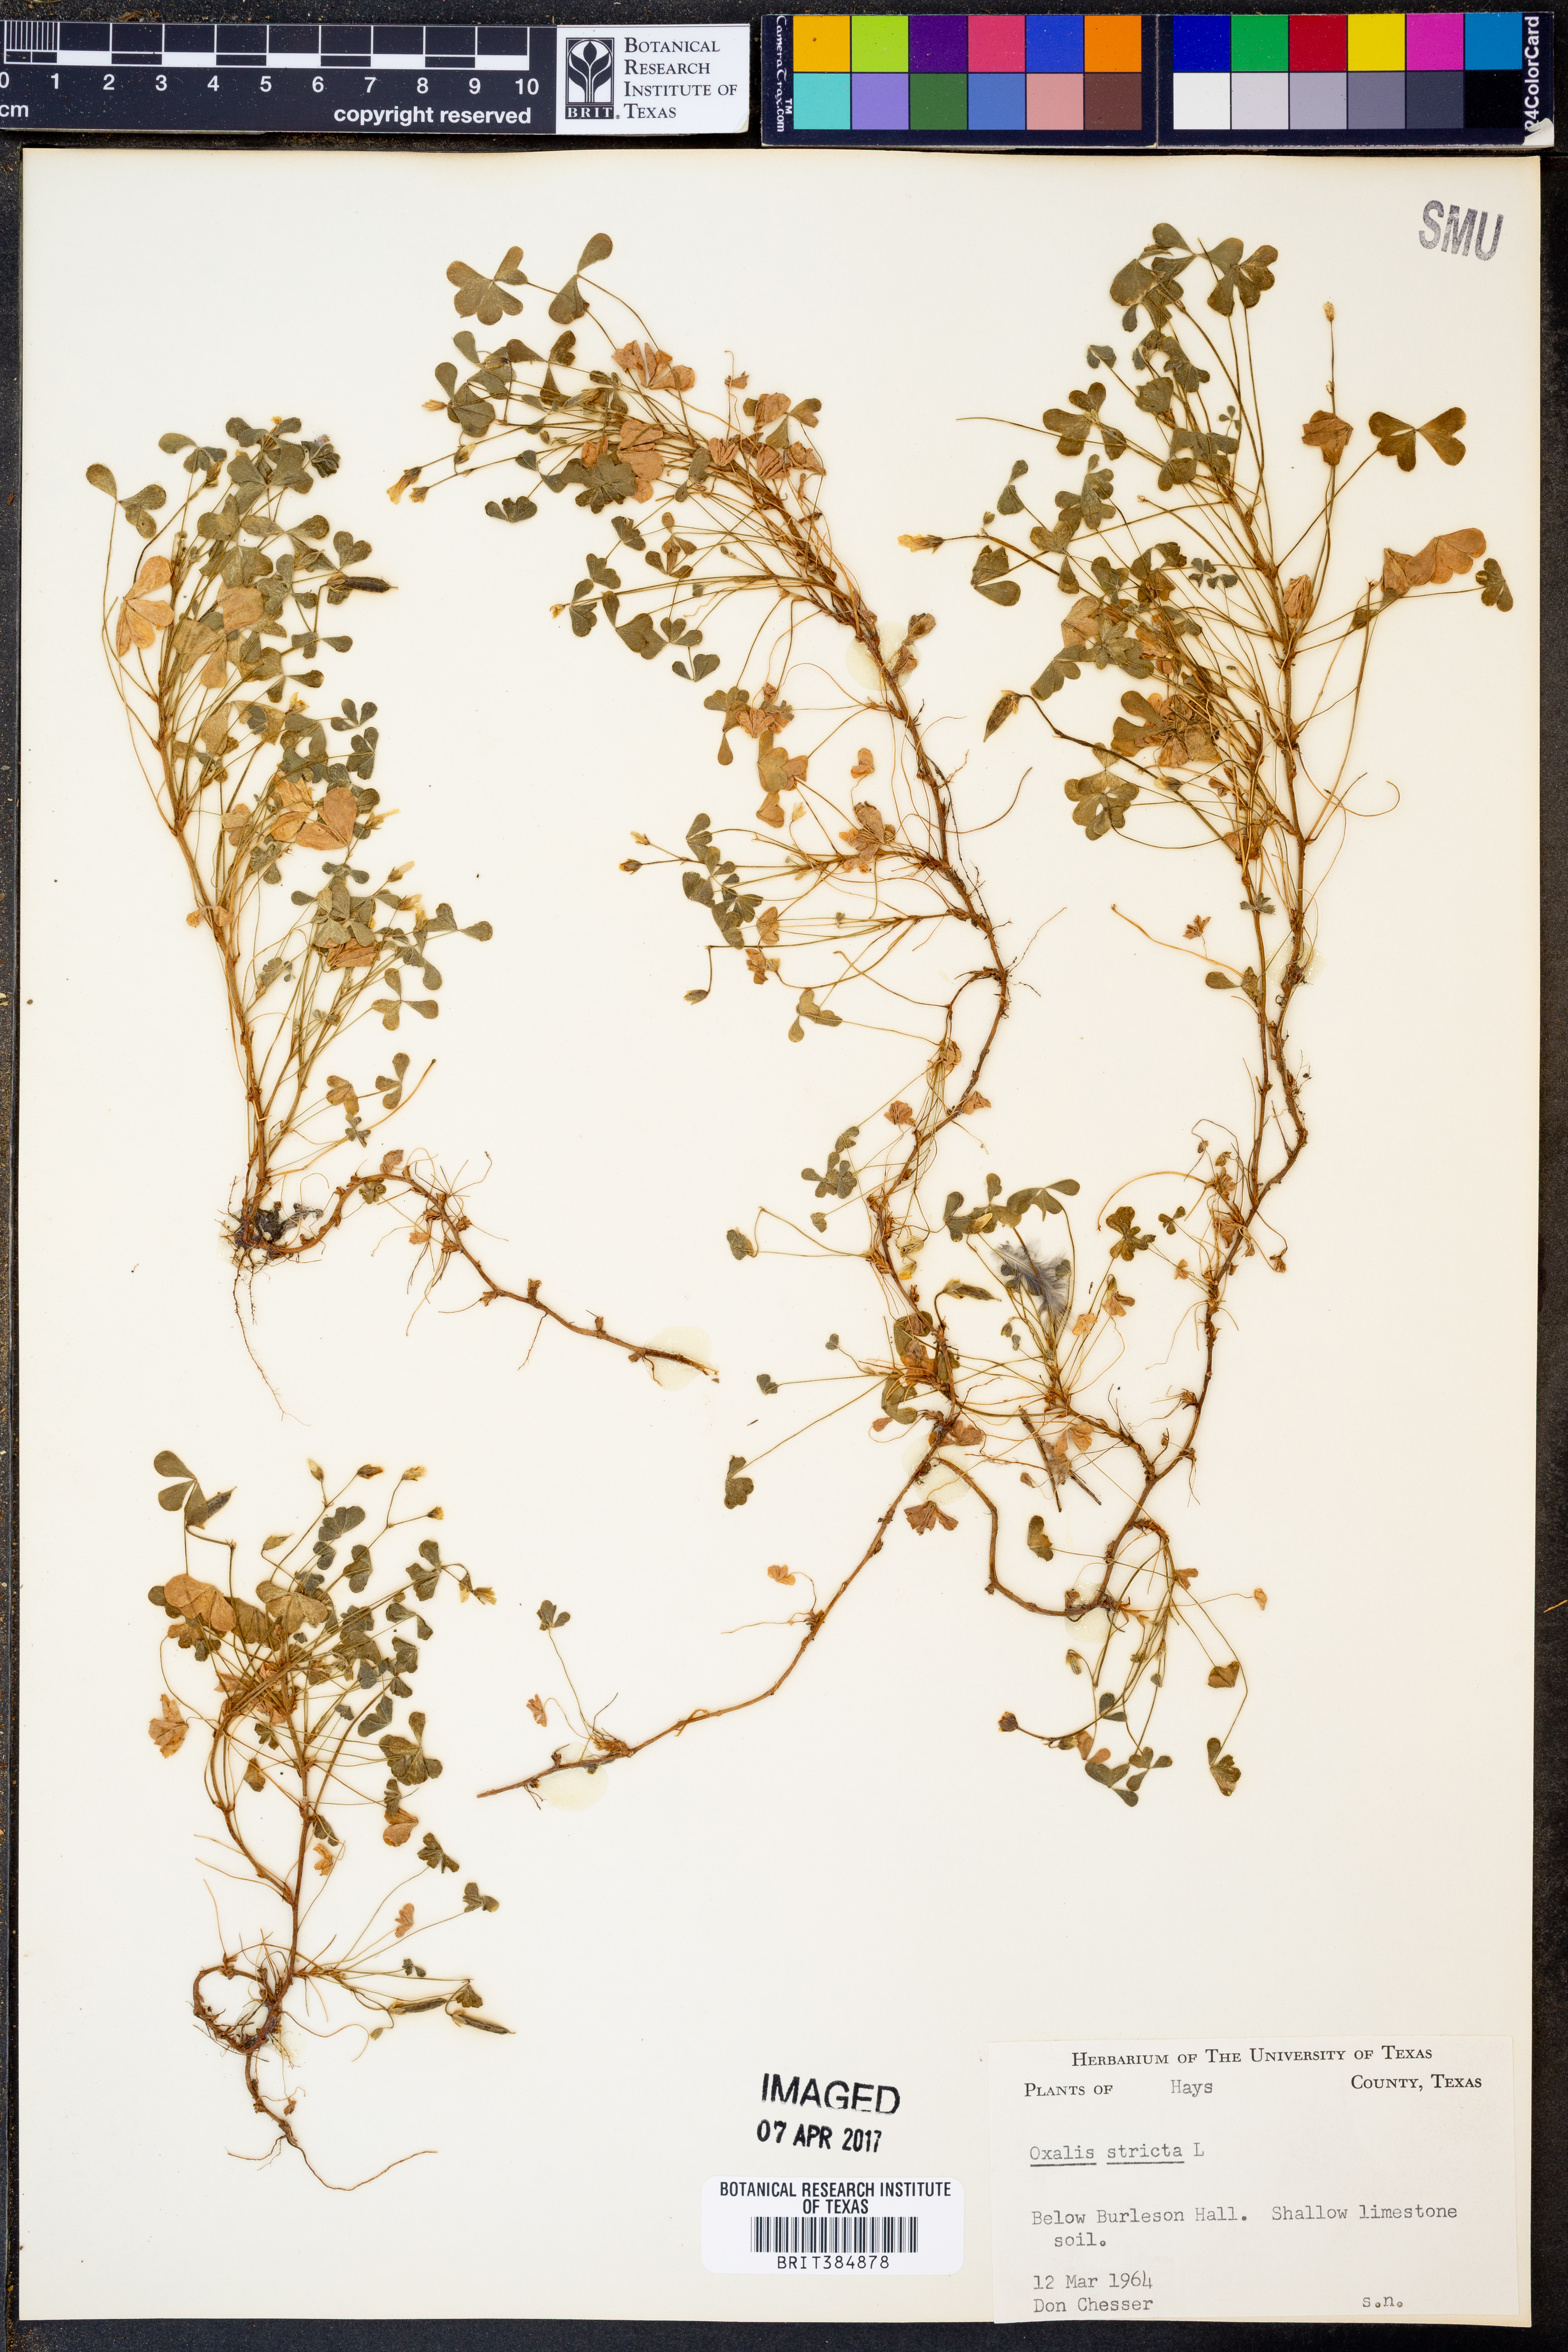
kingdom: Plantae
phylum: Tracheophyta
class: Magnoliopsida
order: Oxalidales
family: Oxalidaceae
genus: Oxalis
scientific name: Oxalis stricta
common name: Upright yellow-sorrel
